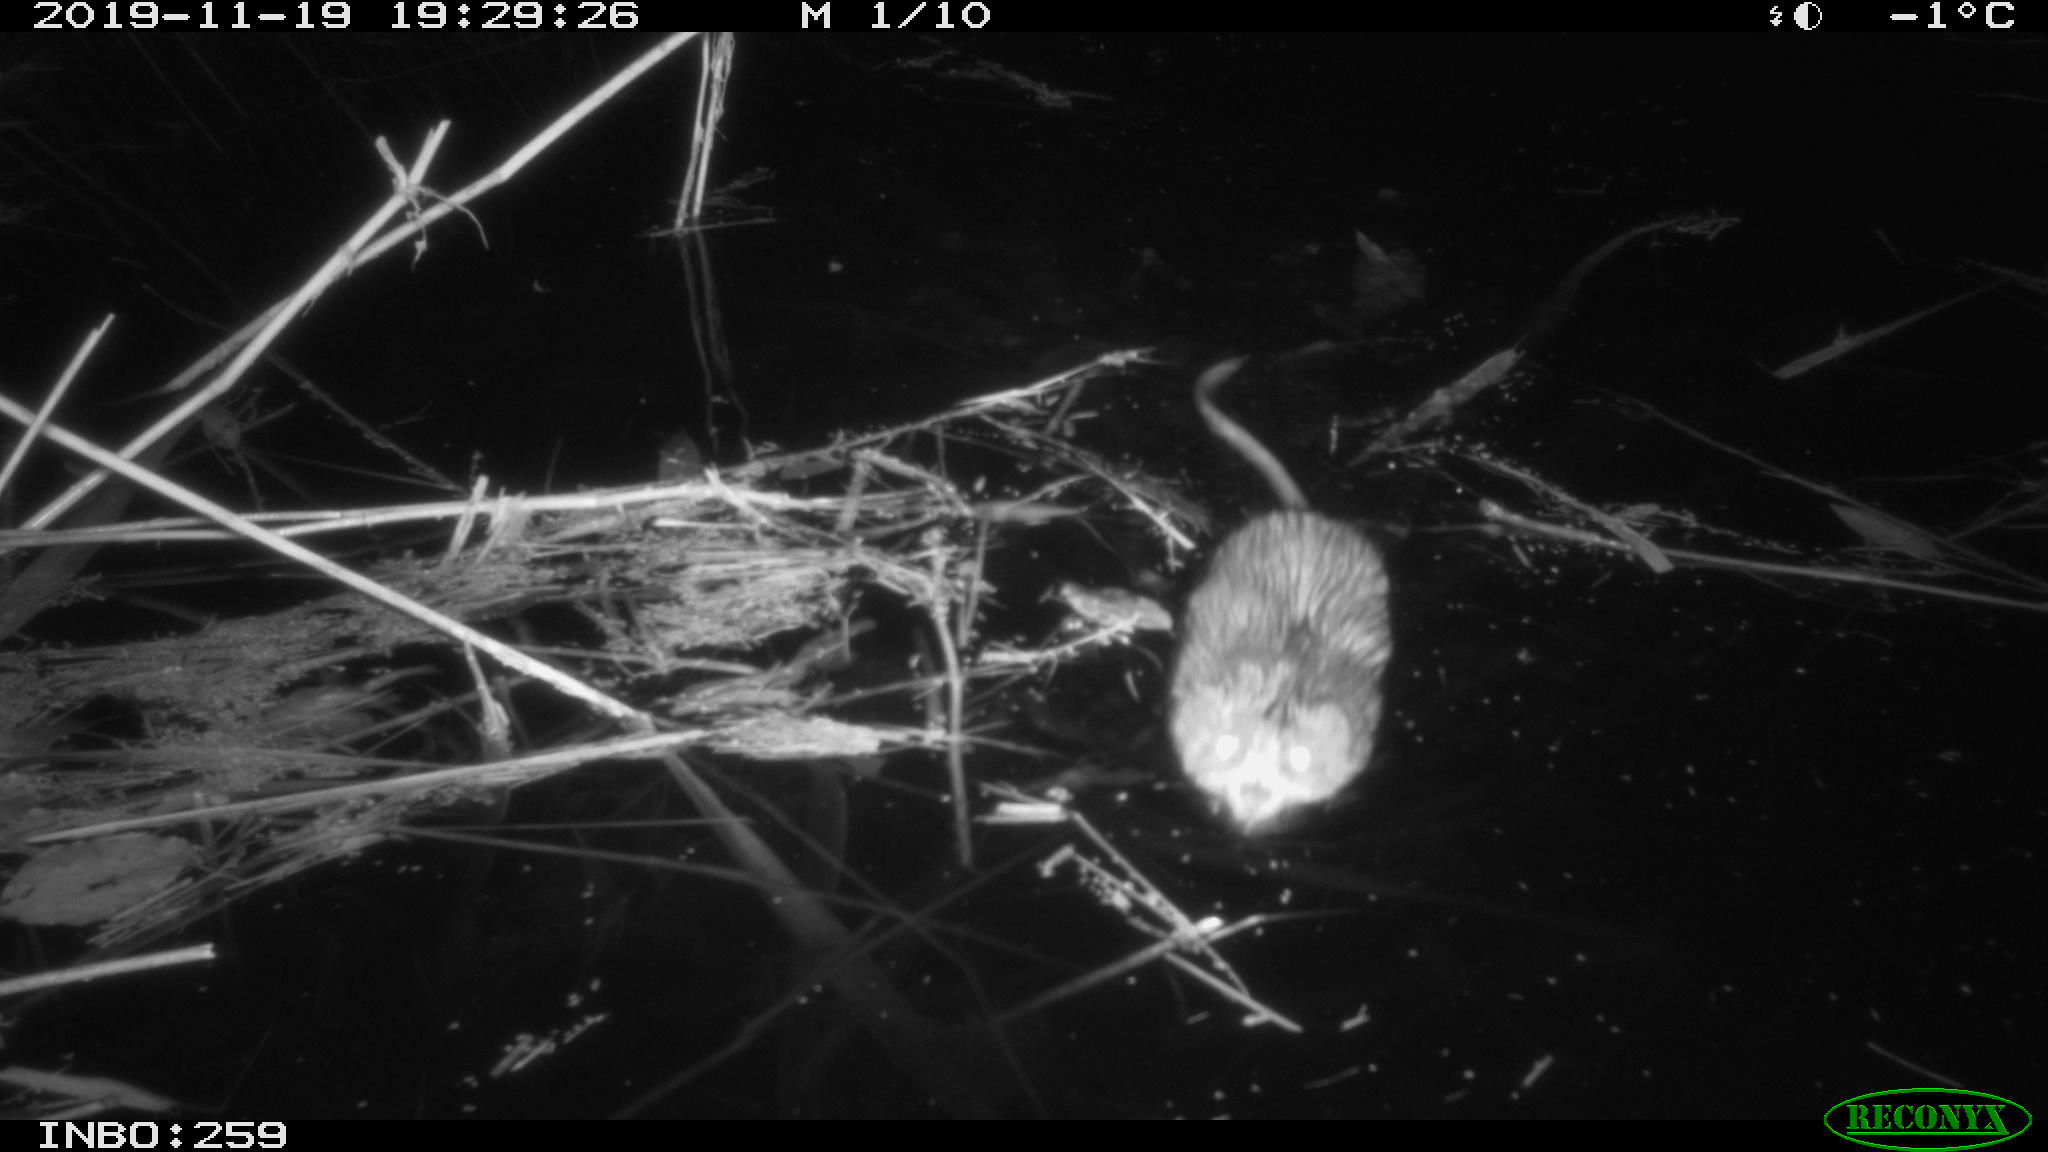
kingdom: Animalia
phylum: Chordata
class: Mammalia
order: Rodentia
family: Cricetidae
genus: Ondatra
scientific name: Ondatra zibethicus
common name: Muskrat
